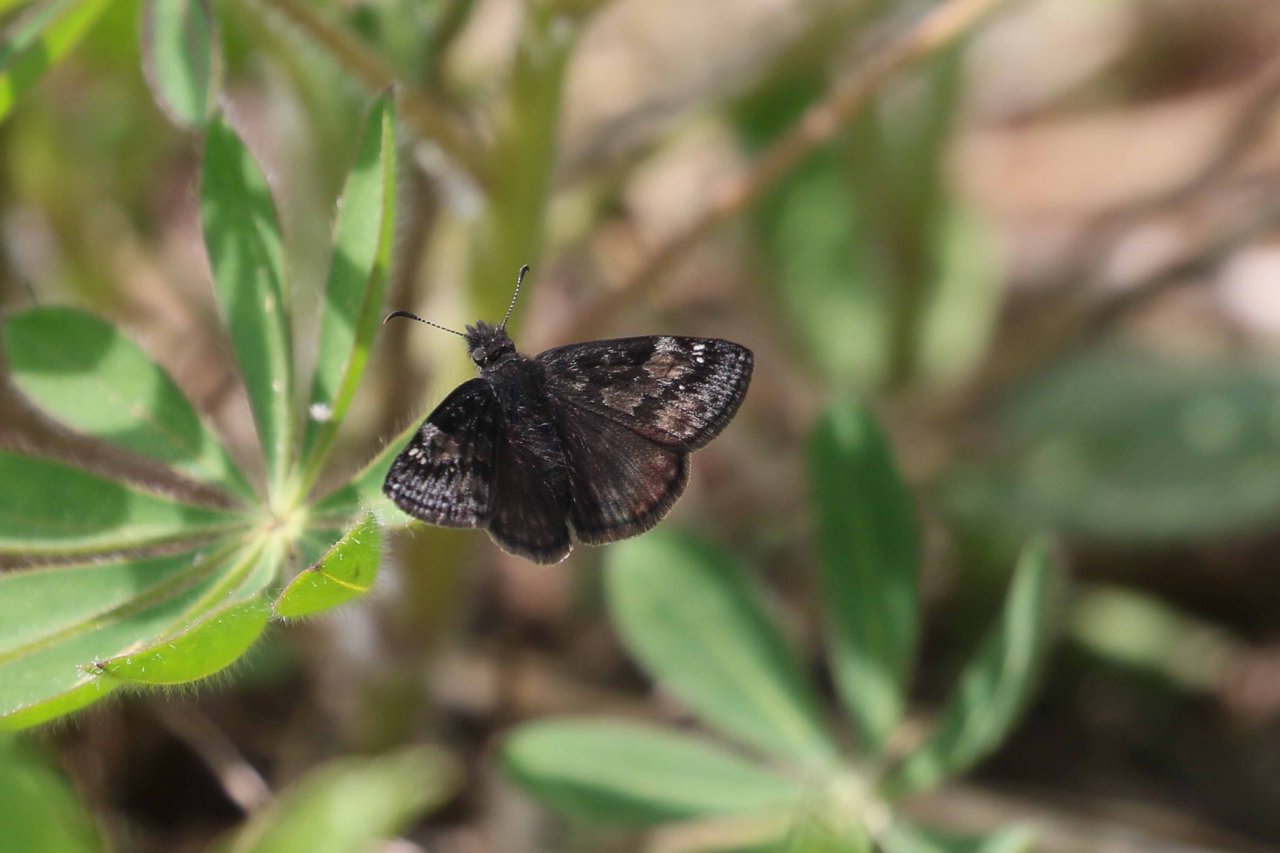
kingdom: Animalia
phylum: Arthropoda
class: Insecta
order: Lepidoptera
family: Hesperiidae
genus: Gesta
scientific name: Gesta
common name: Wild Indigo Duskywing
